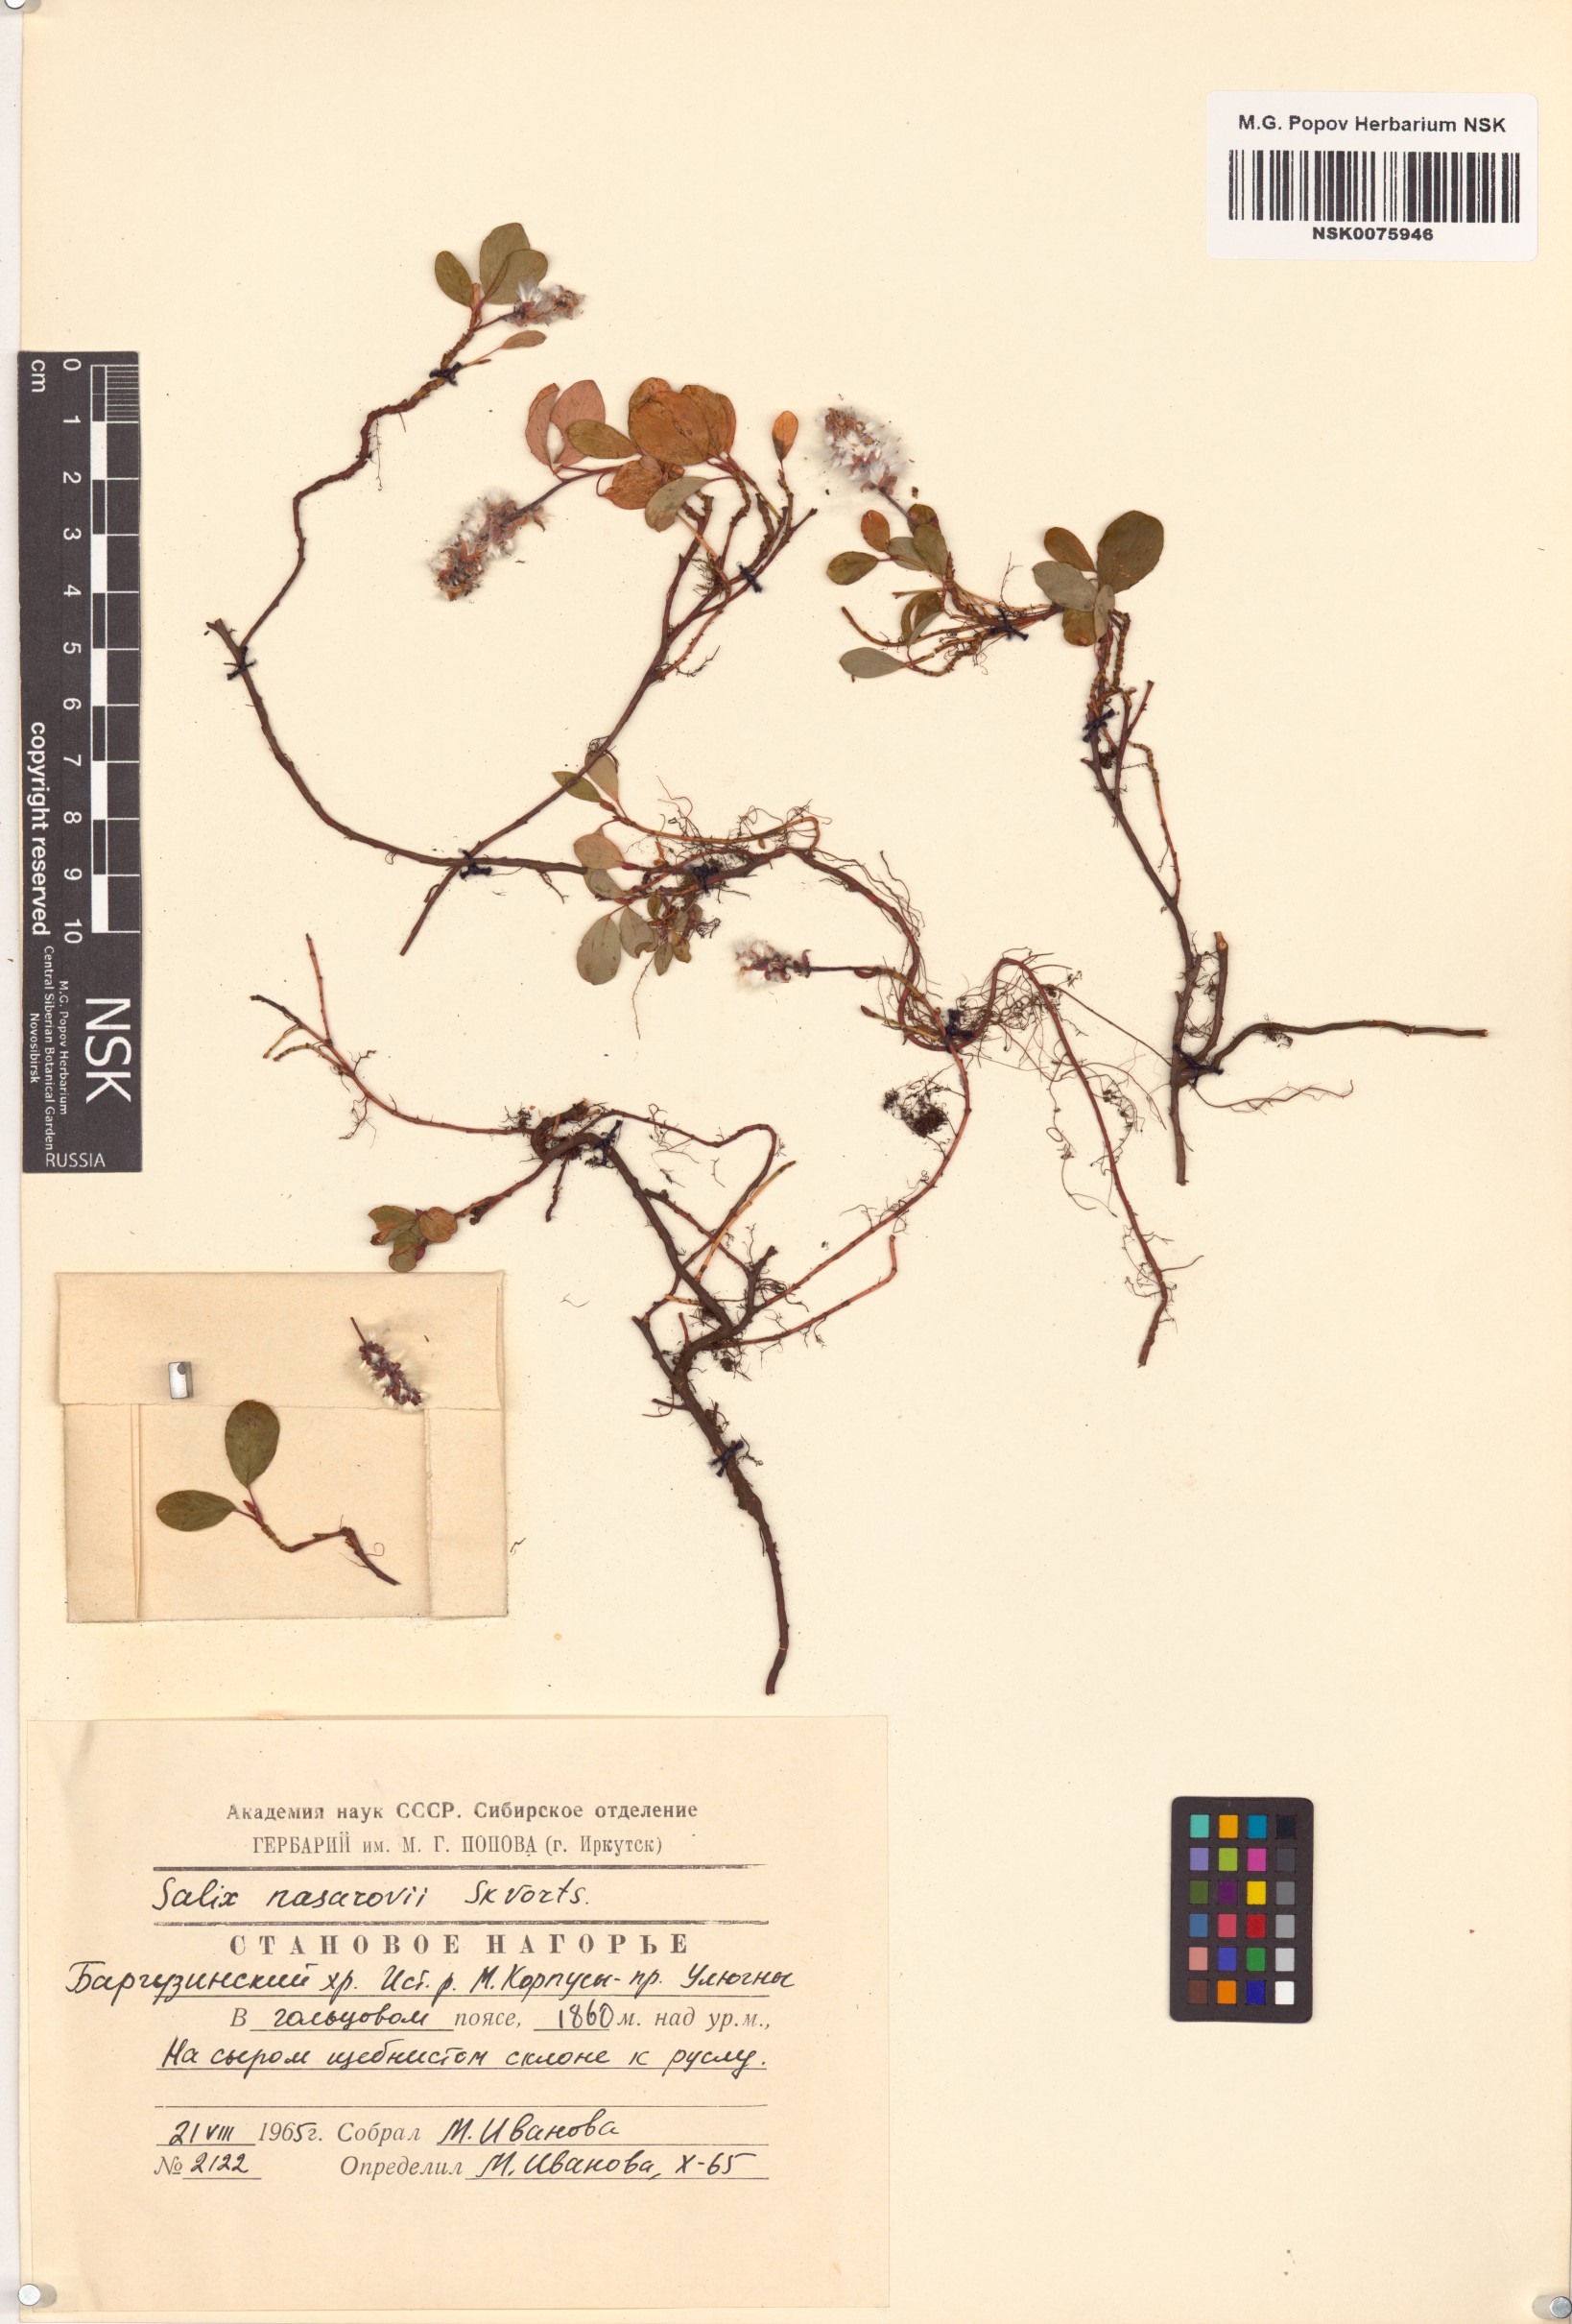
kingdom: Plantae
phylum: Tracheophyta
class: Magnoliopsida
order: Malpighiales
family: Salicaceae
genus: Salix
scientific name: Salix nasarovii
